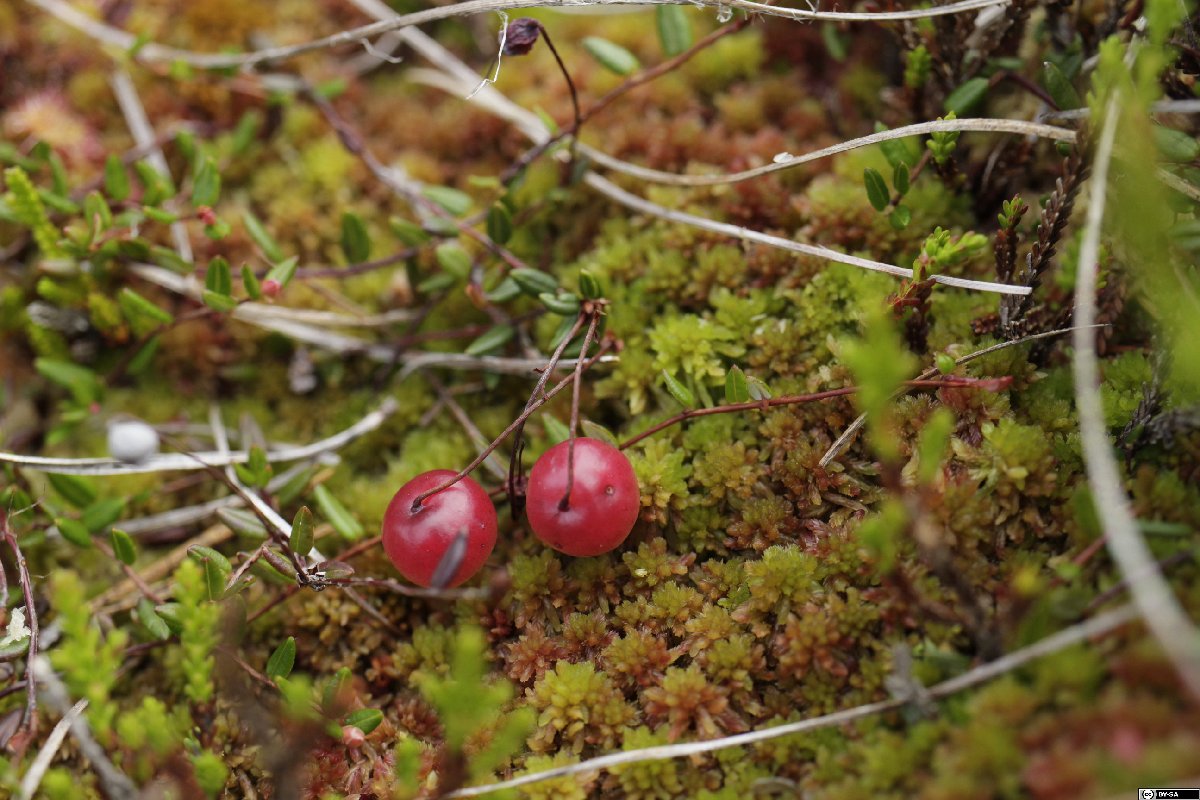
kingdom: Plantae
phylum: Tracheophyta
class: Magnoliopsida
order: Ericales
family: Ericaceae
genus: Vaccinium
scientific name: Vaccinium oxycoccos
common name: Cranberry
